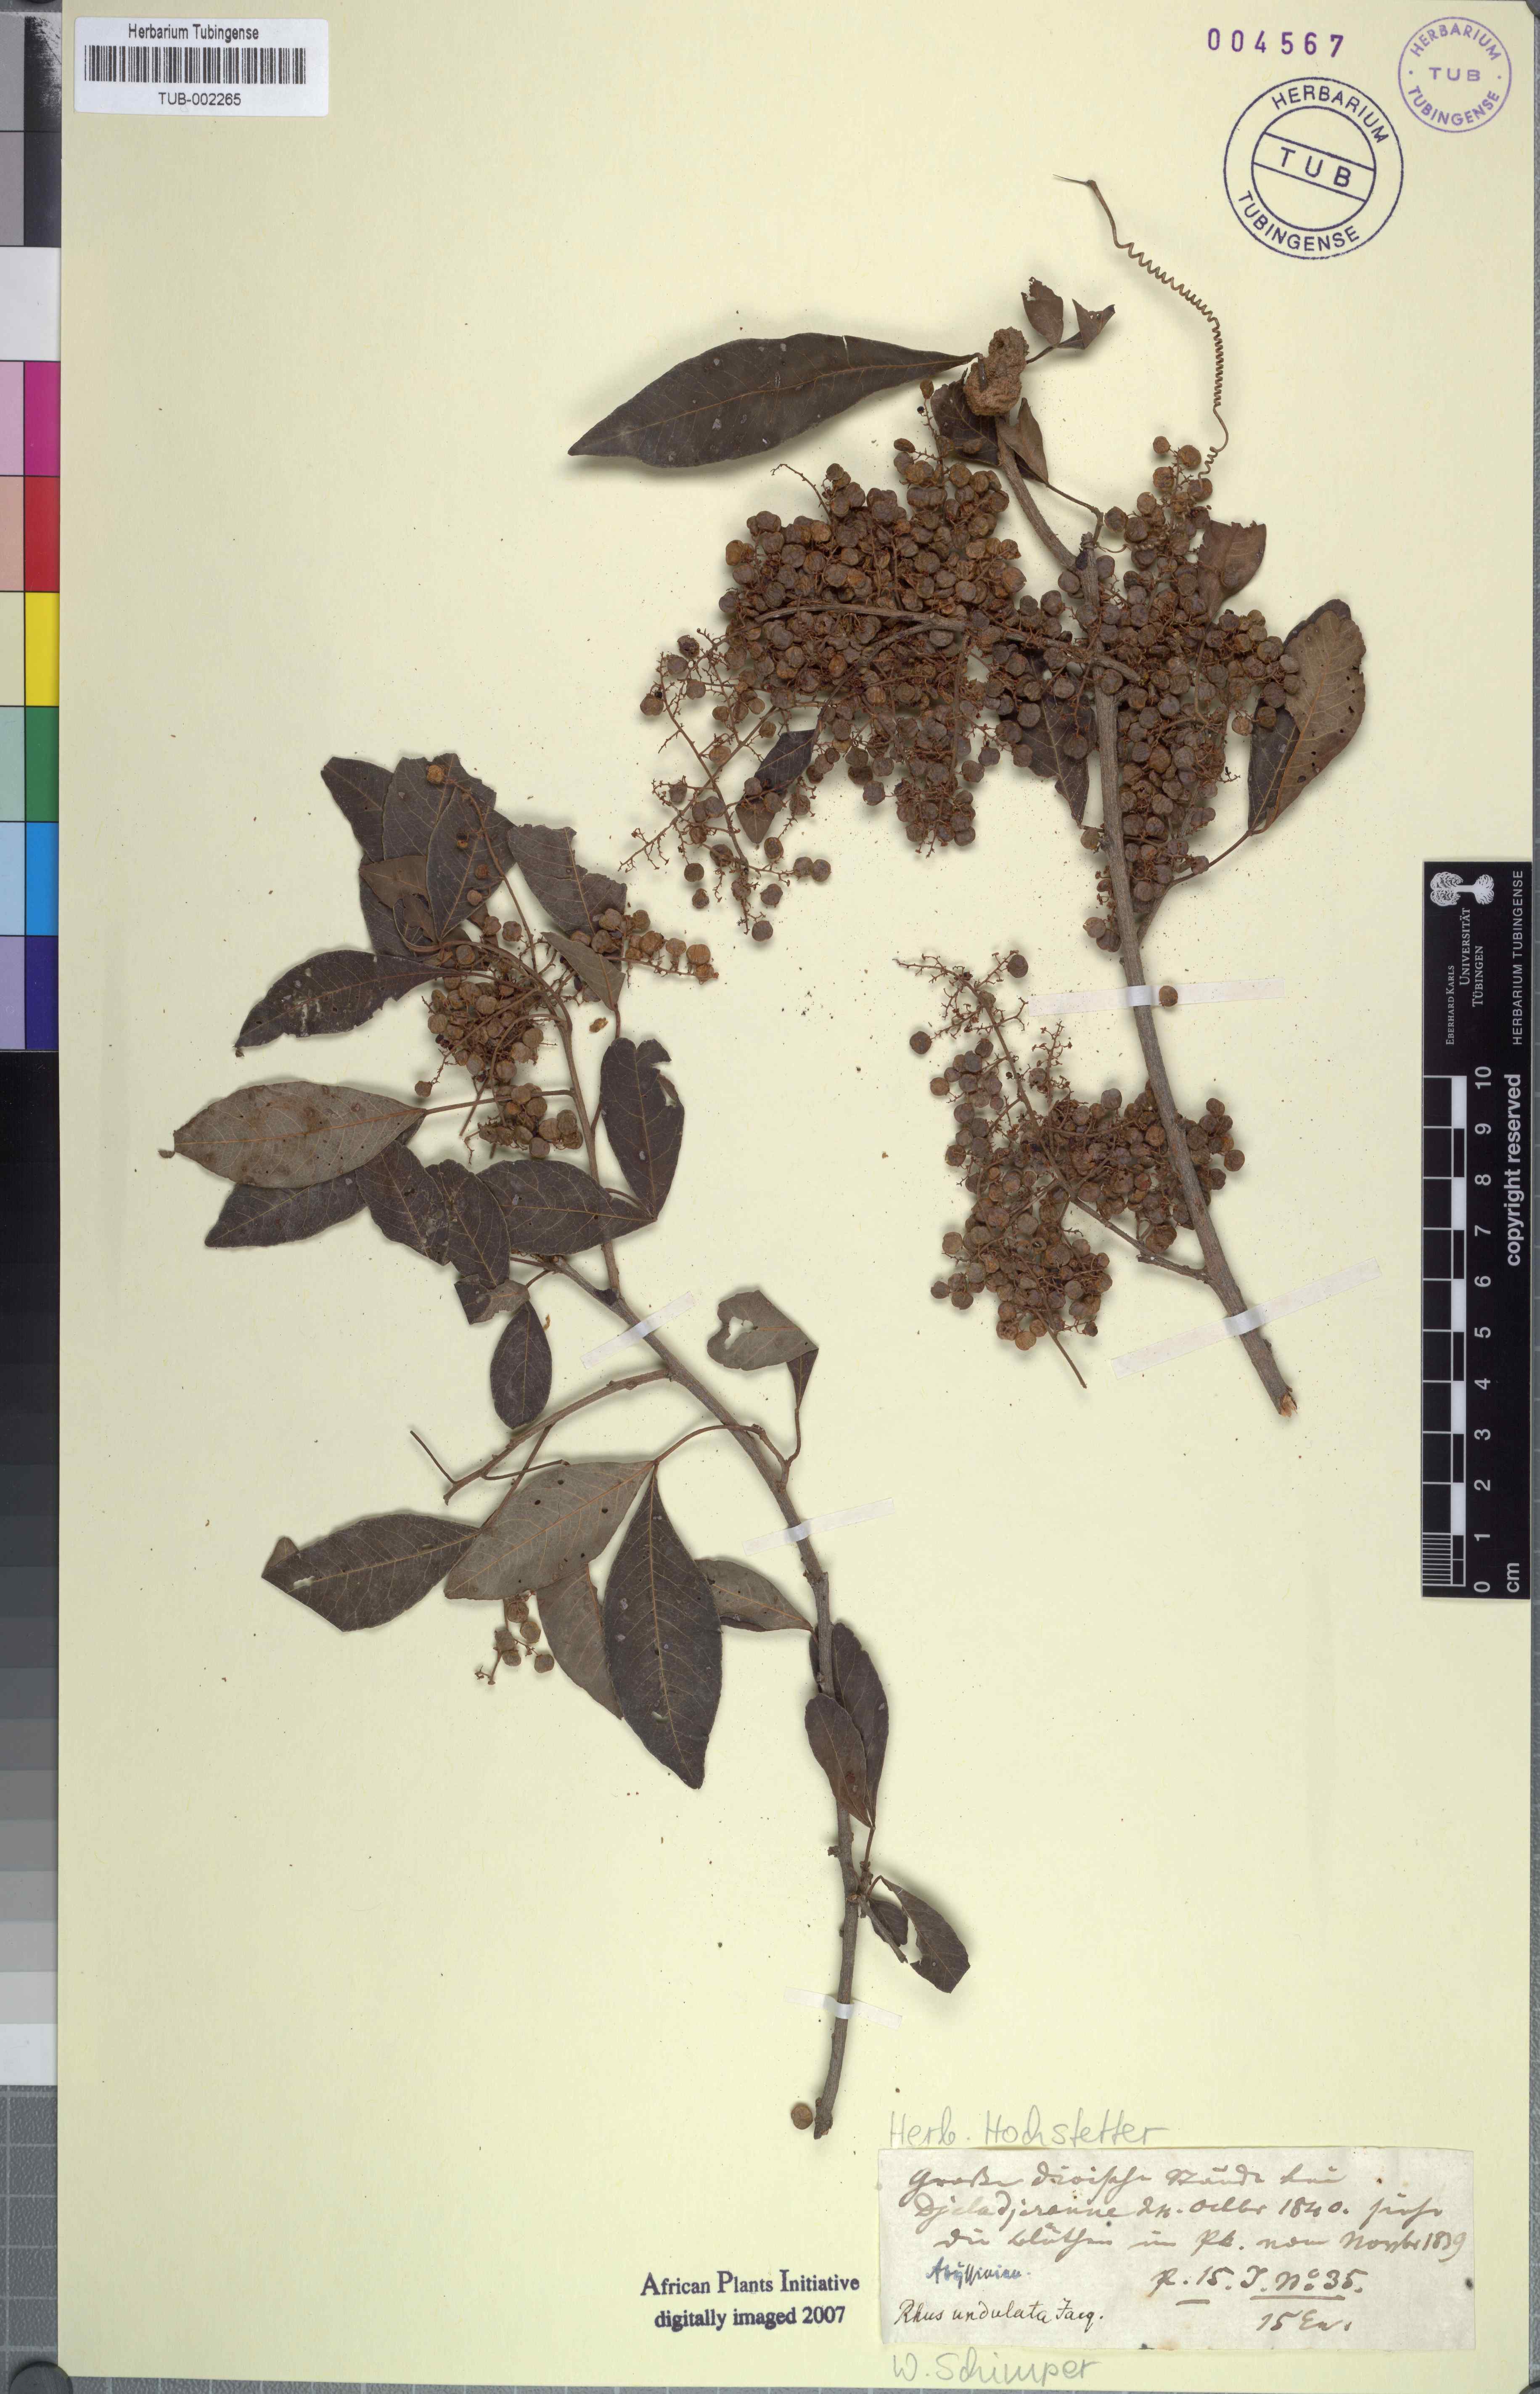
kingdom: Plantae
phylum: Tracheophyta
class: Magnoliopsida
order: Sapindales
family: Anacardiaceae
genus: Searsia
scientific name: Searsia undulata
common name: Namaqua kunibush
